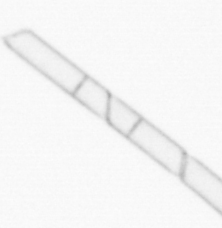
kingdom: Chromista
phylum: Ochrophyta
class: Bacillariophyceae
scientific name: Bacillariophyceae
